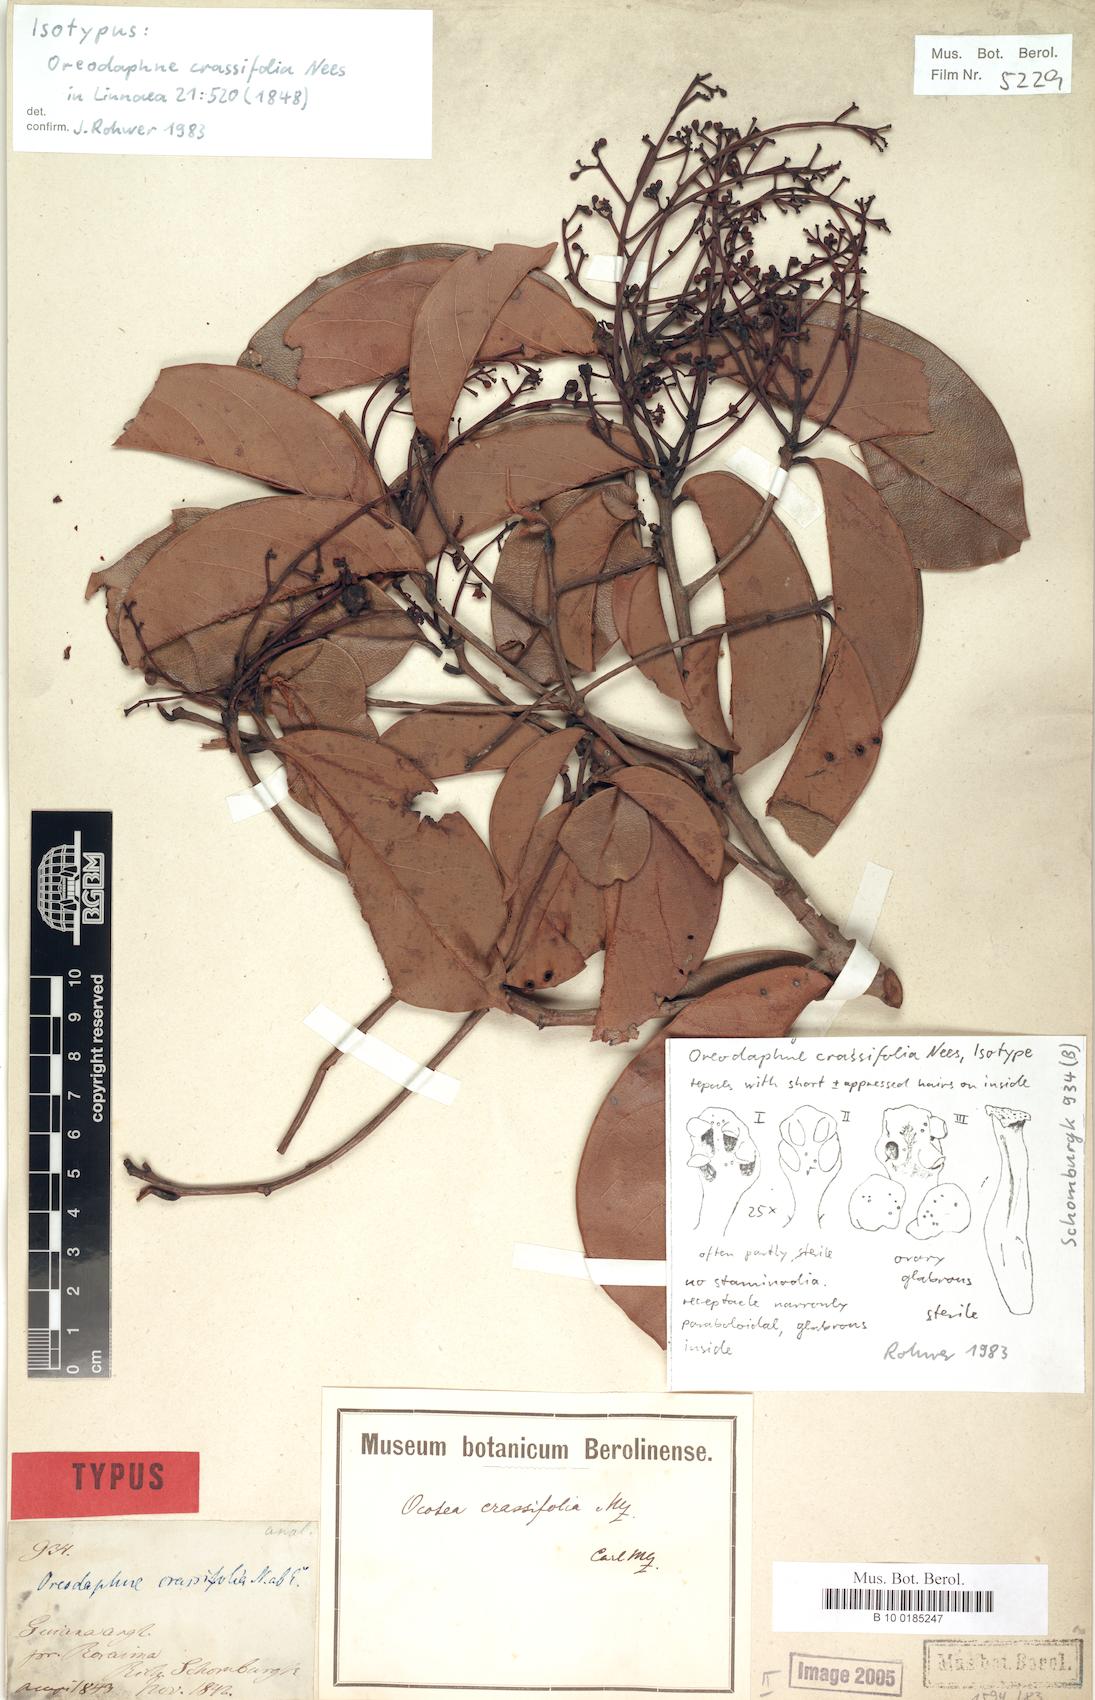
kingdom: Plantae
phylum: Tracheophyta
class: Magnoliopsida
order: Laurales
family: Lauraceae
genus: Ocotea
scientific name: Ocotea crassifolia
